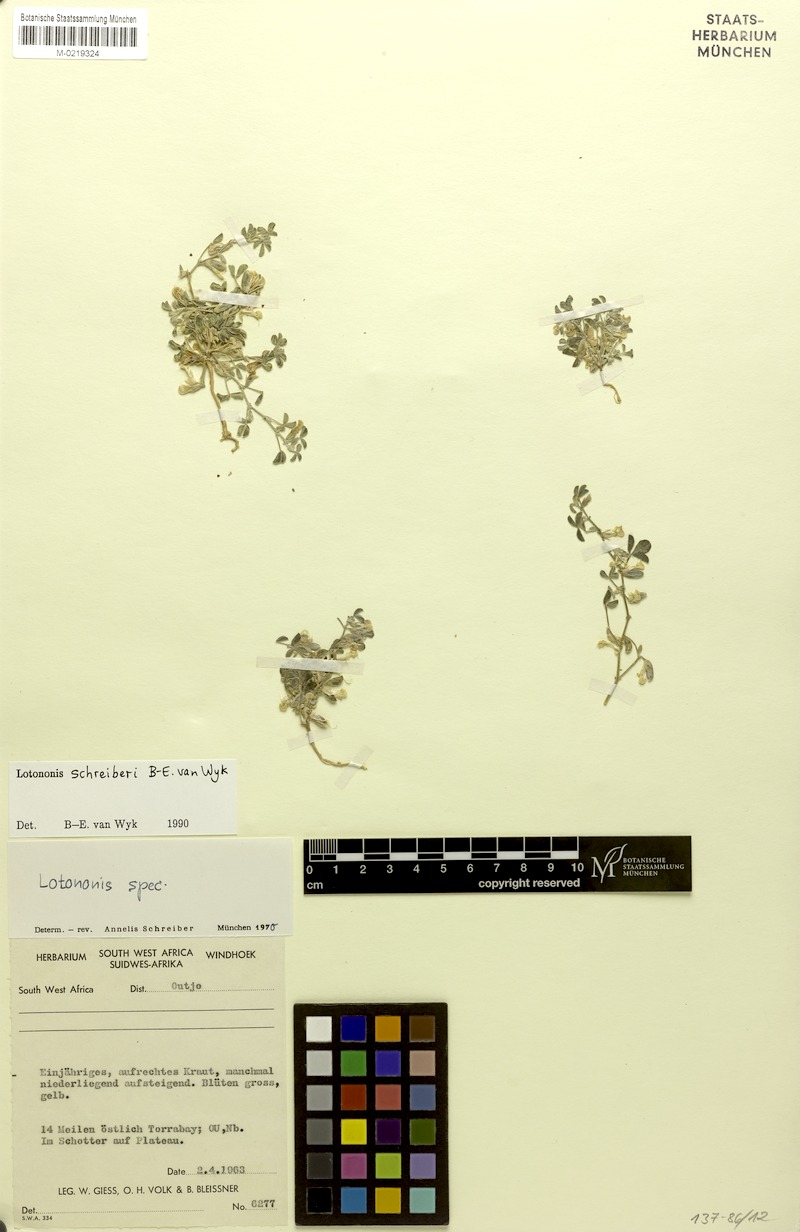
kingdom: Plantae
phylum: Tracheophyta
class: Magnoliopsida
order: Fabales
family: Fabaceae
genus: Lotononis
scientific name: Lotononis schreiberi
